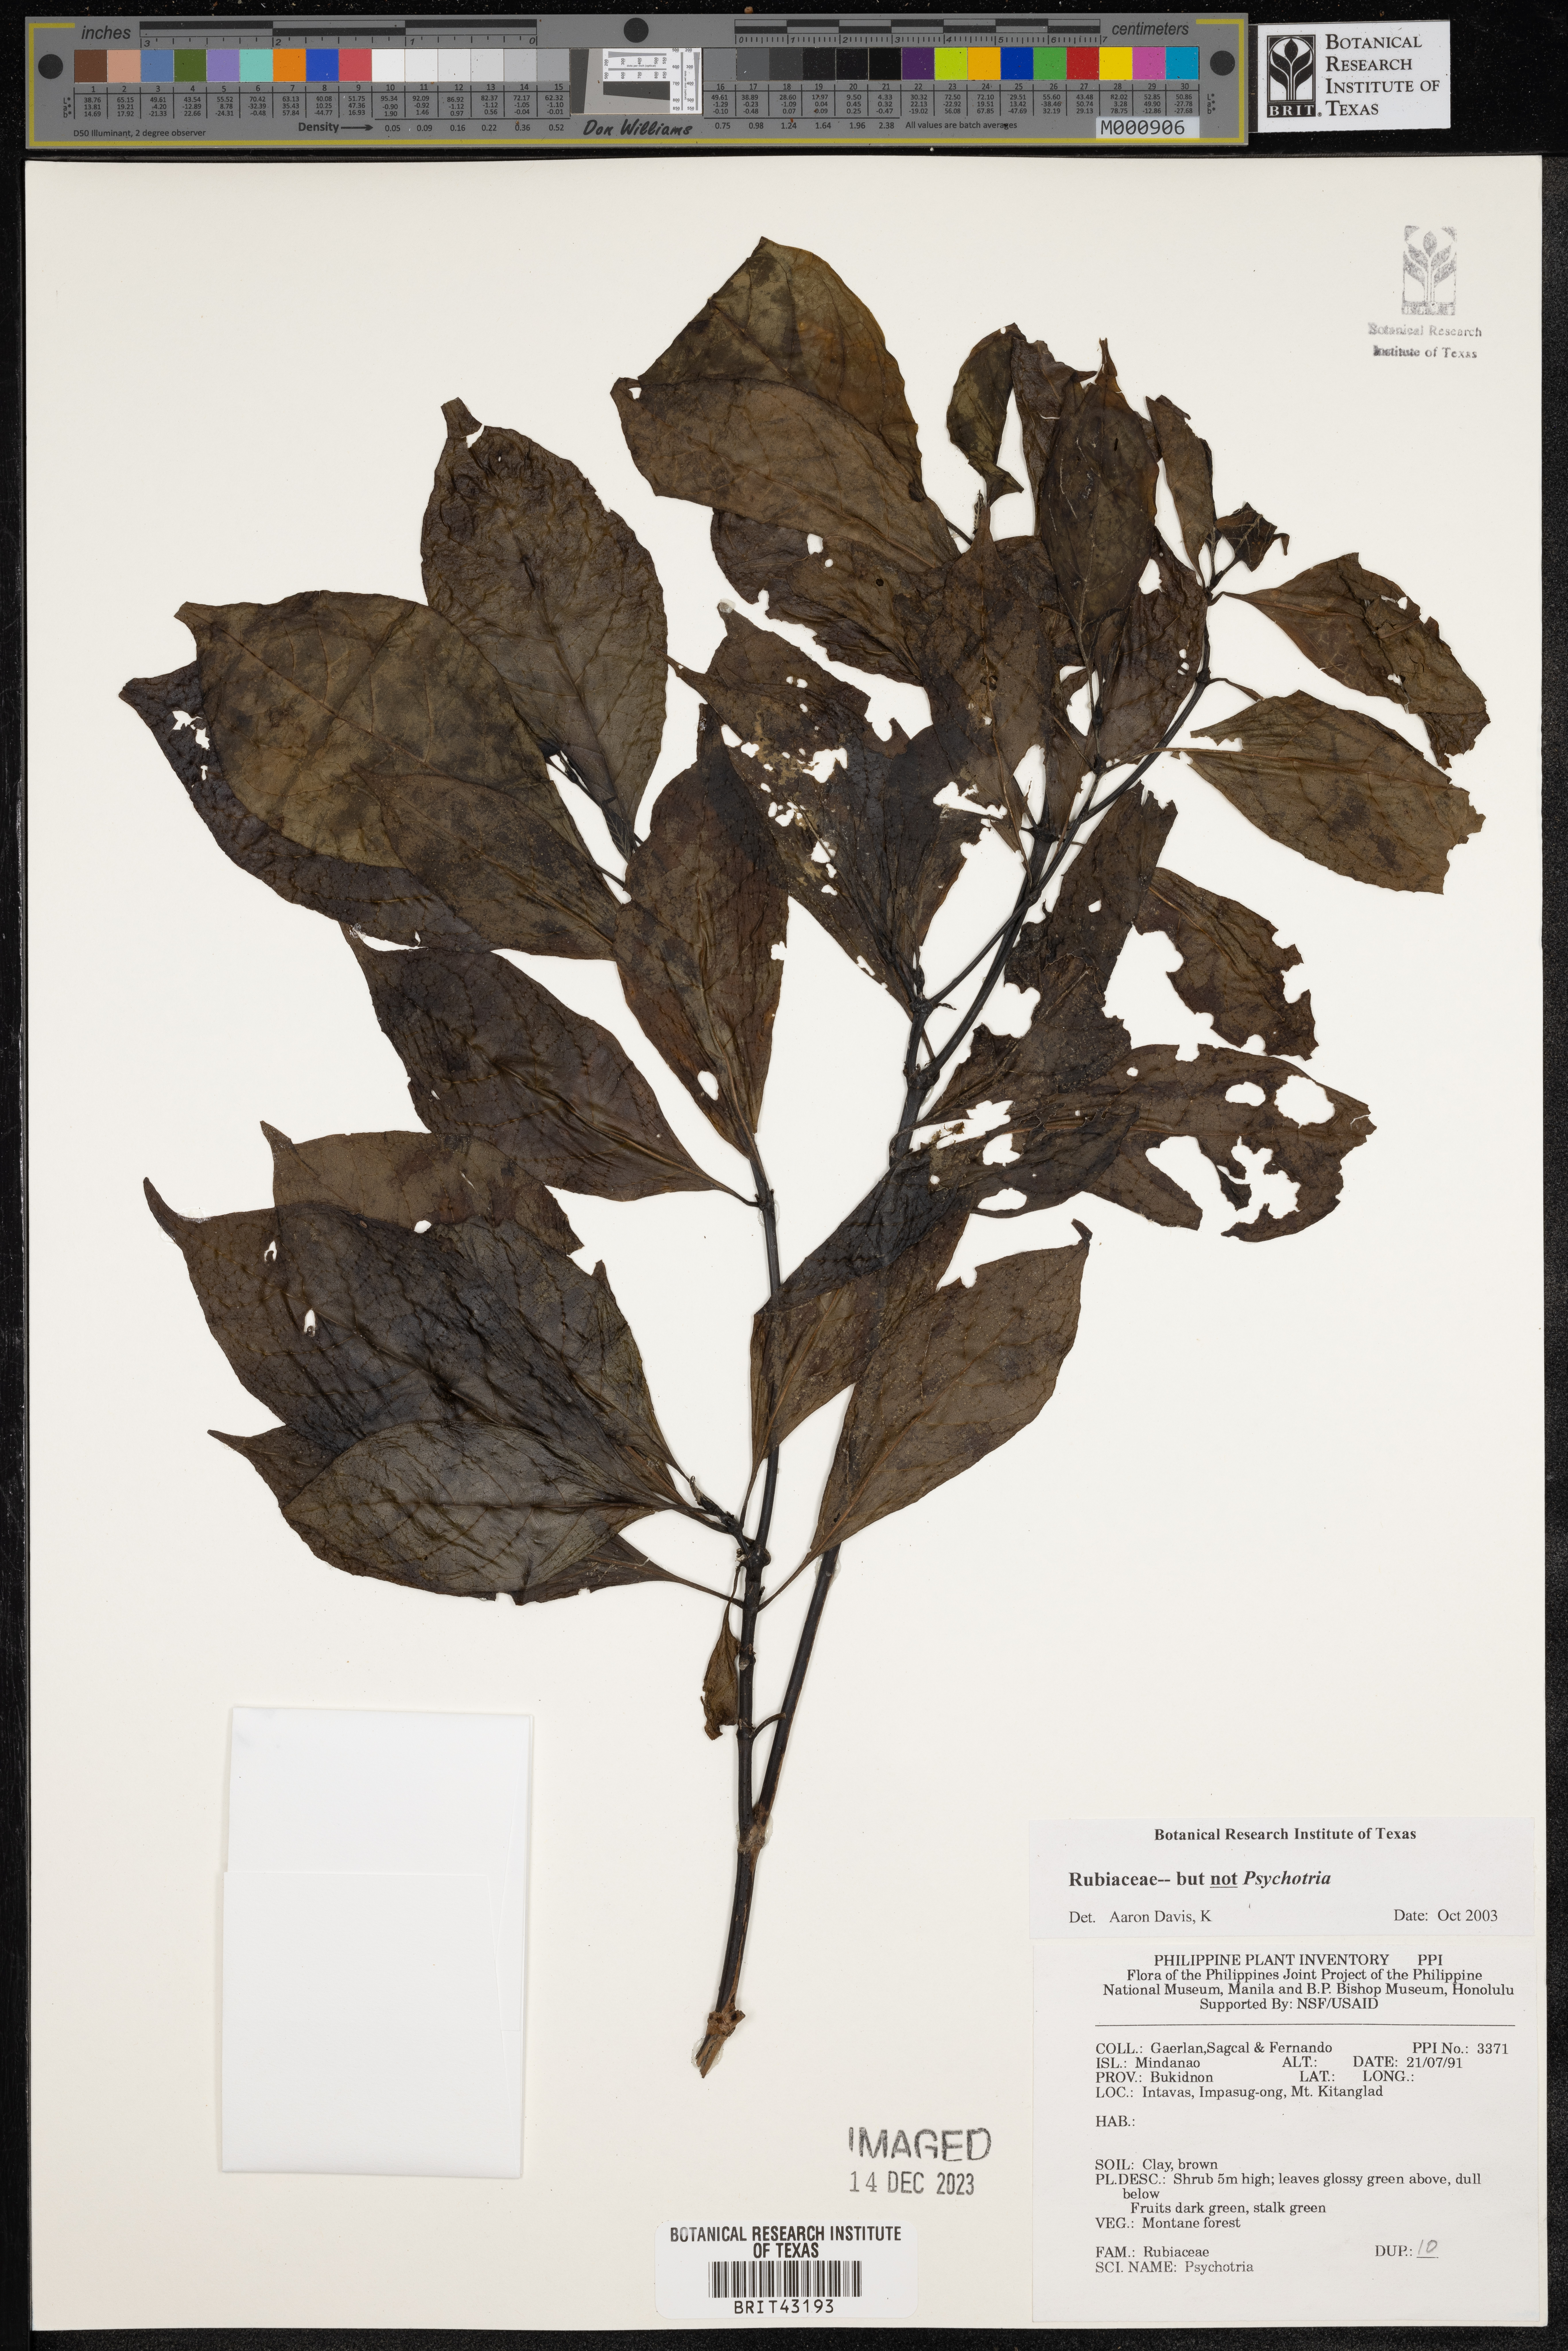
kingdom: Plantae
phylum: Tracheophyta
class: Magnoliopsida
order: Gentianales
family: Rubiaceae
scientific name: Rubiaceae
